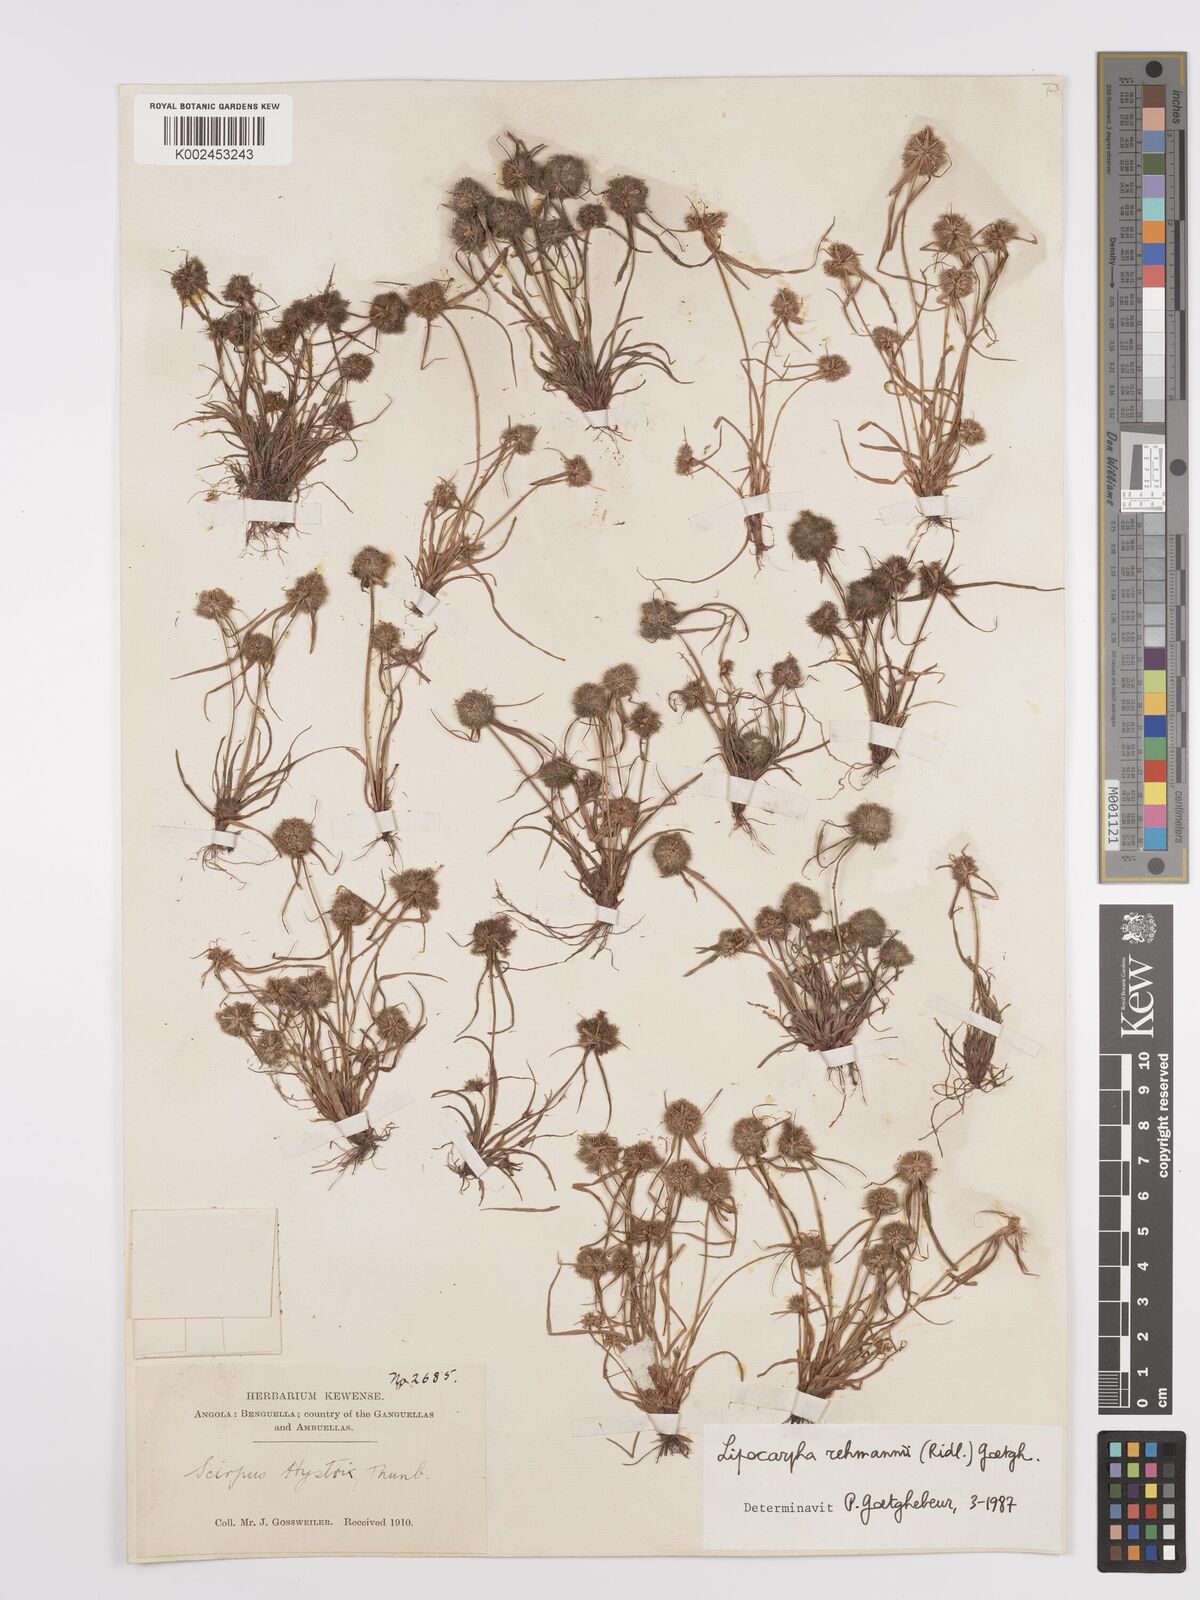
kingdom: Plantae
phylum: Tracheophyta
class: Liliopsida
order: Poales
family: Cyperaceae
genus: Cyperus
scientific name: Cyperus sanguinolentus
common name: Purpleglume flatsedge
